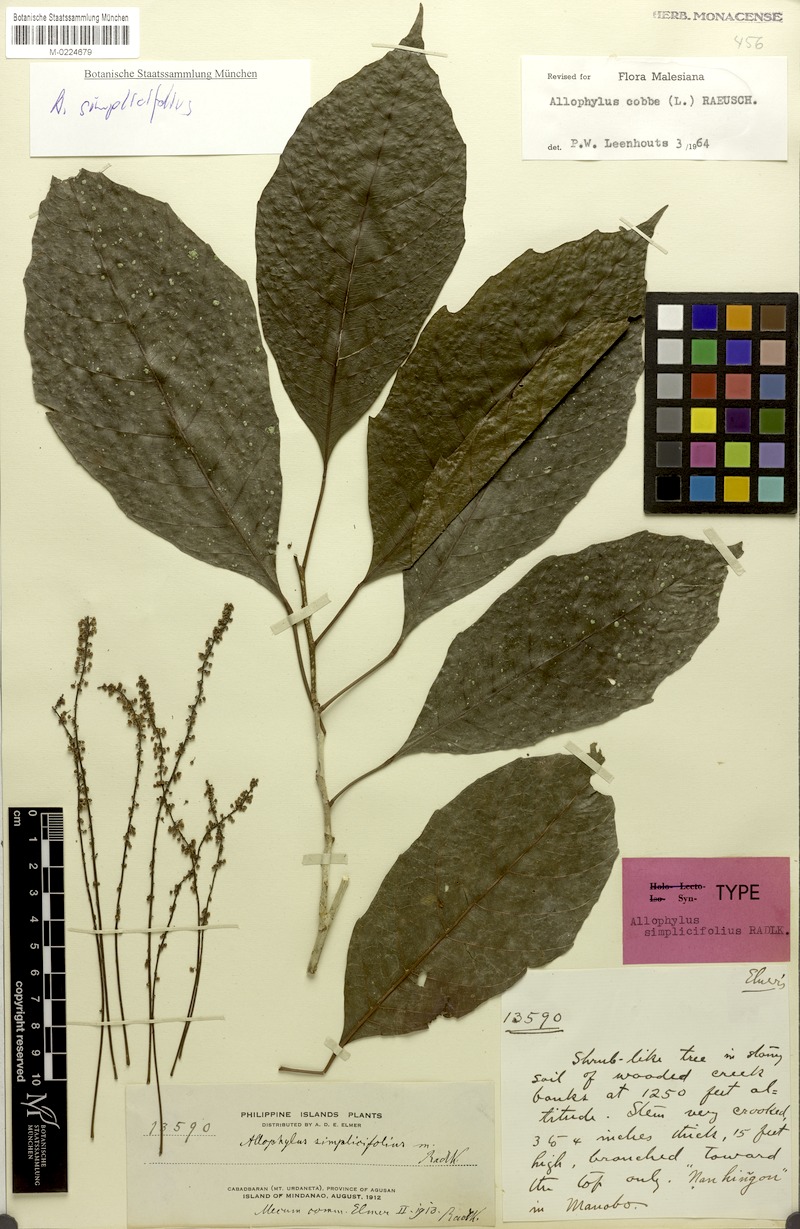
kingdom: Plantae
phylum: Tracheophyta
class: Magnoliopsida
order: Sapindales
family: Sapindaceae
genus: Allophylus
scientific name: Allophylus simplicifolius
